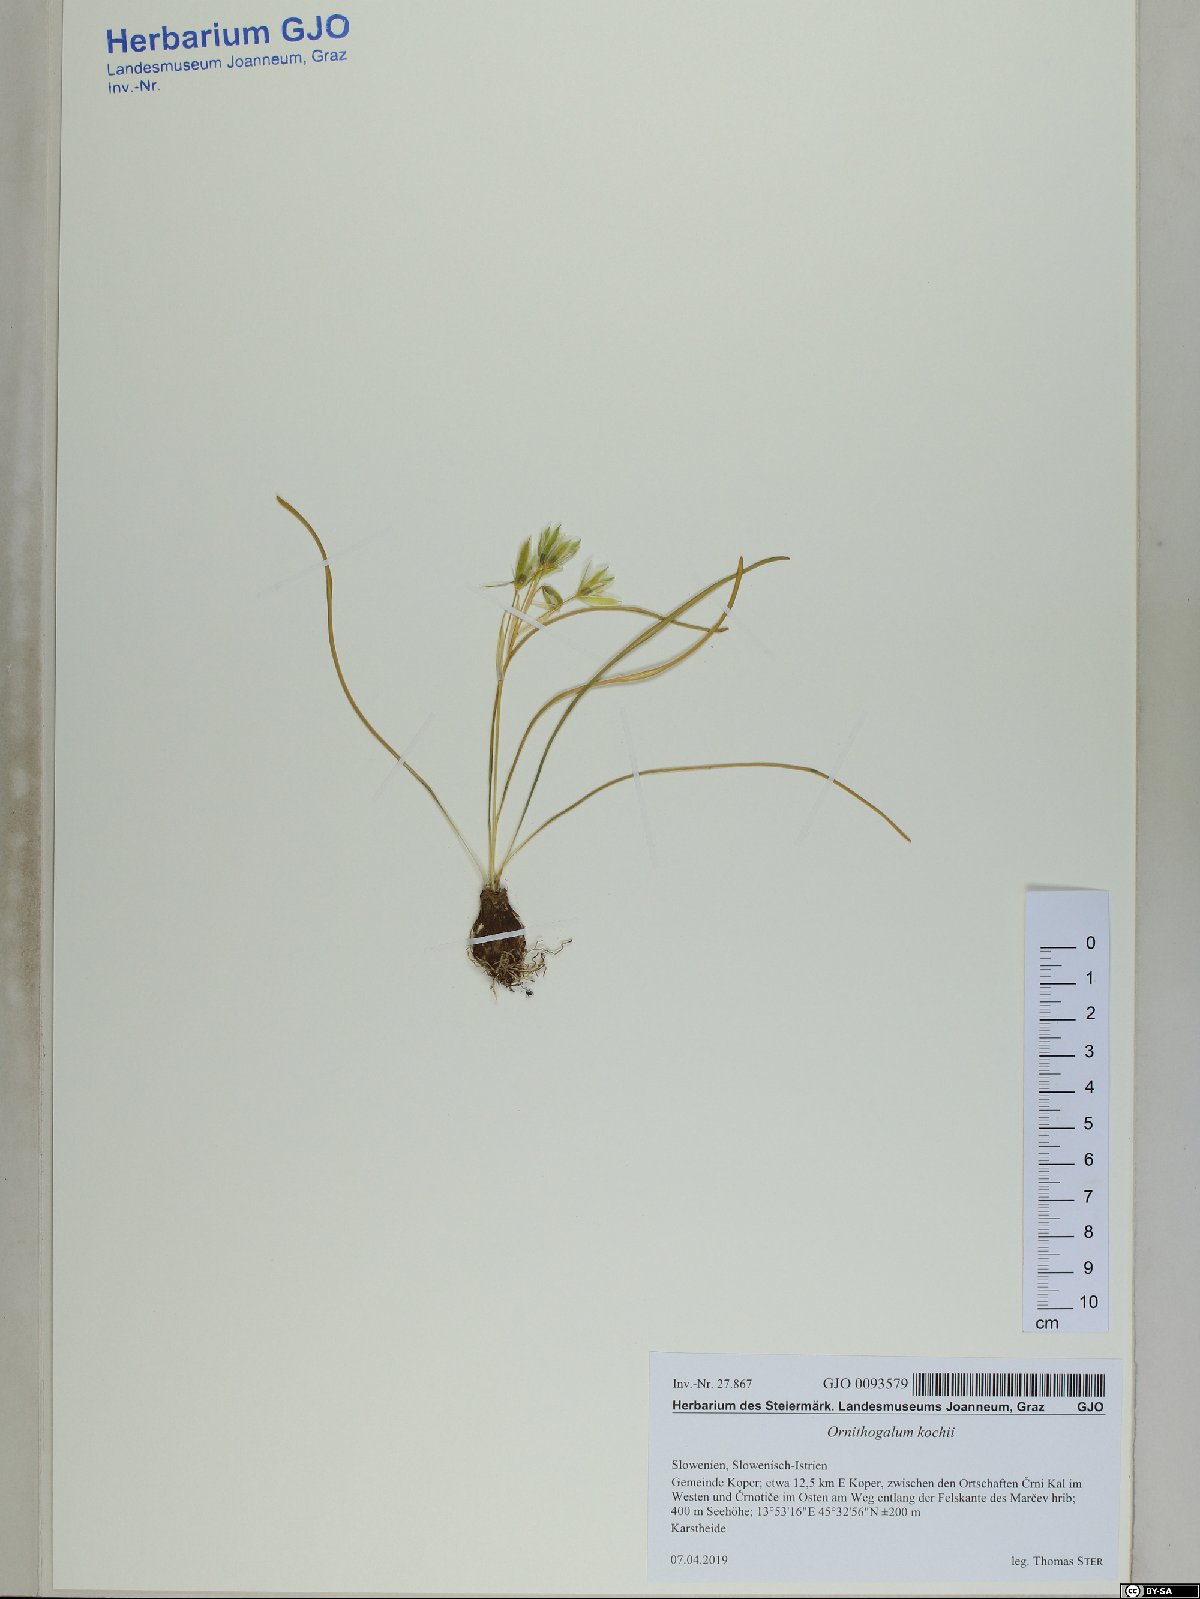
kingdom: Plantae
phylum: Tracheophyta
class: Liliopsida
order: Asparagales
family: Asparagaceae
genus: Ornithogalum
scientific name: Ornithogalum orthophyllum
